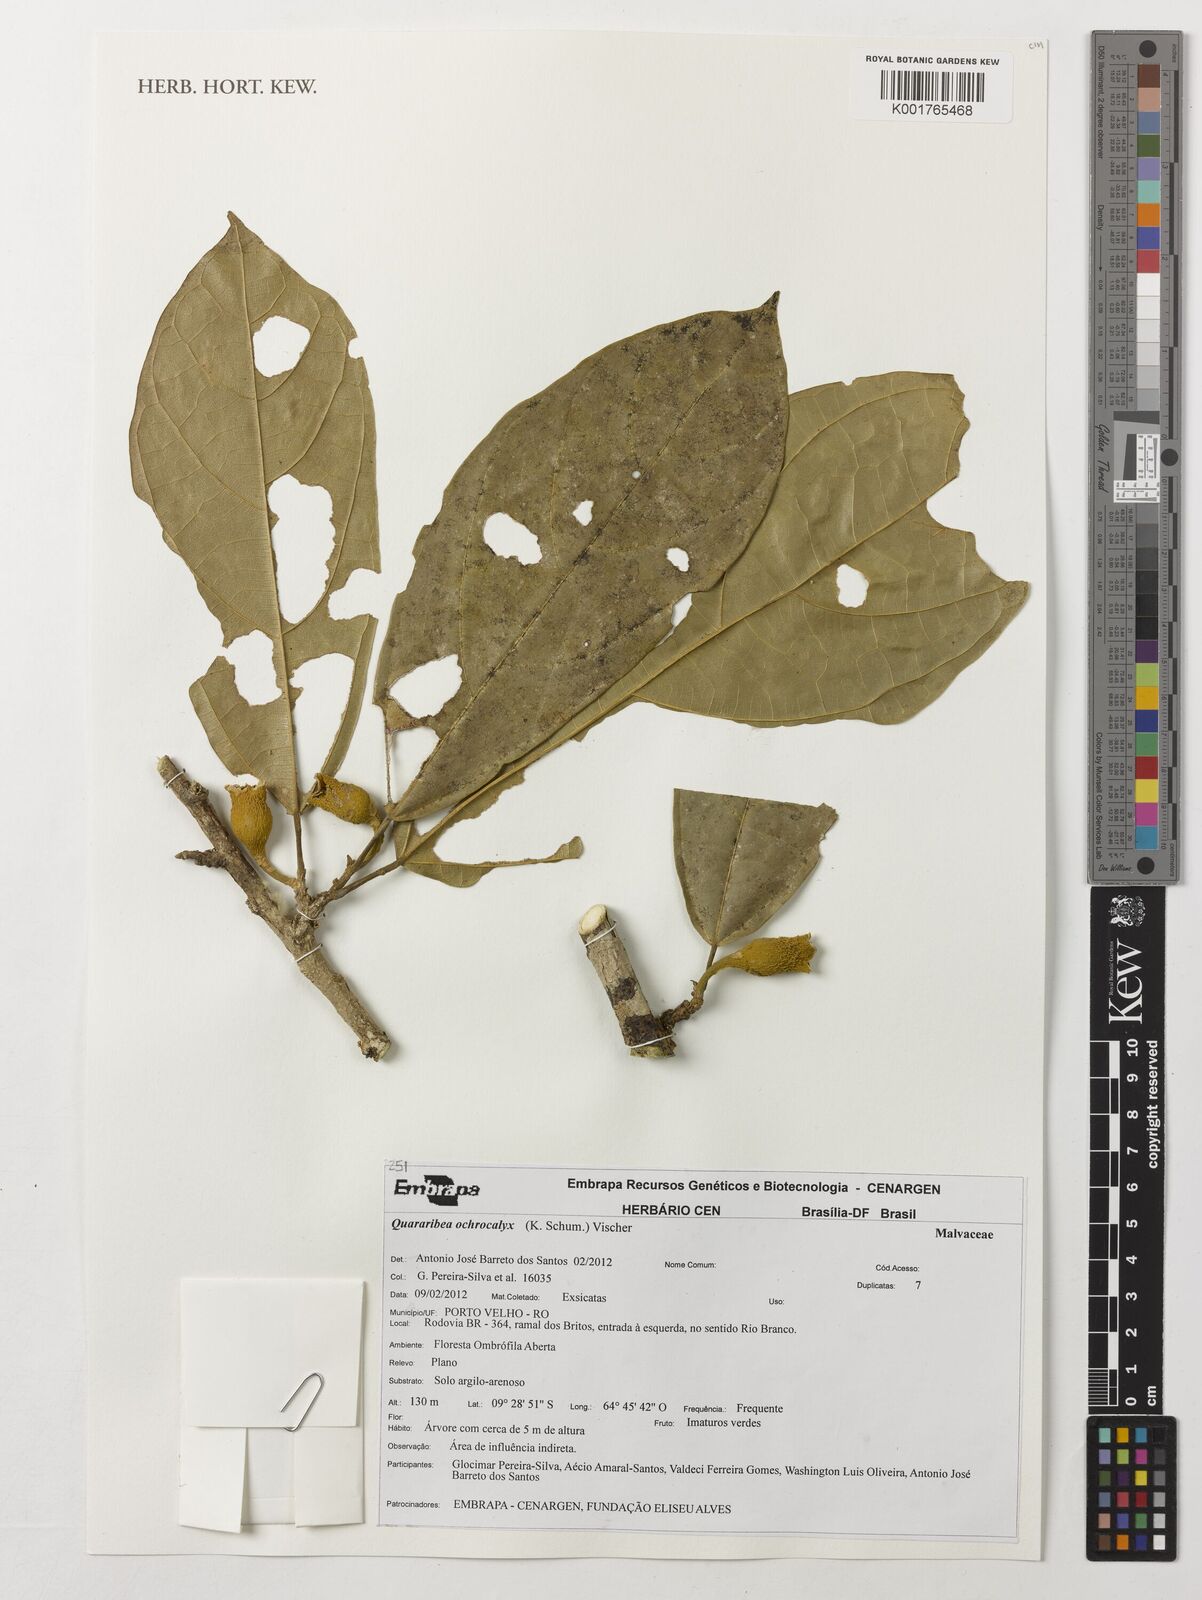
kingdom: Plantae
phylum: Tracheophyta
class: Magnoliopsida
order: Malvales
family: Malvaceae
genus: Matisia
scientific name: Matisia ochrocalyx
